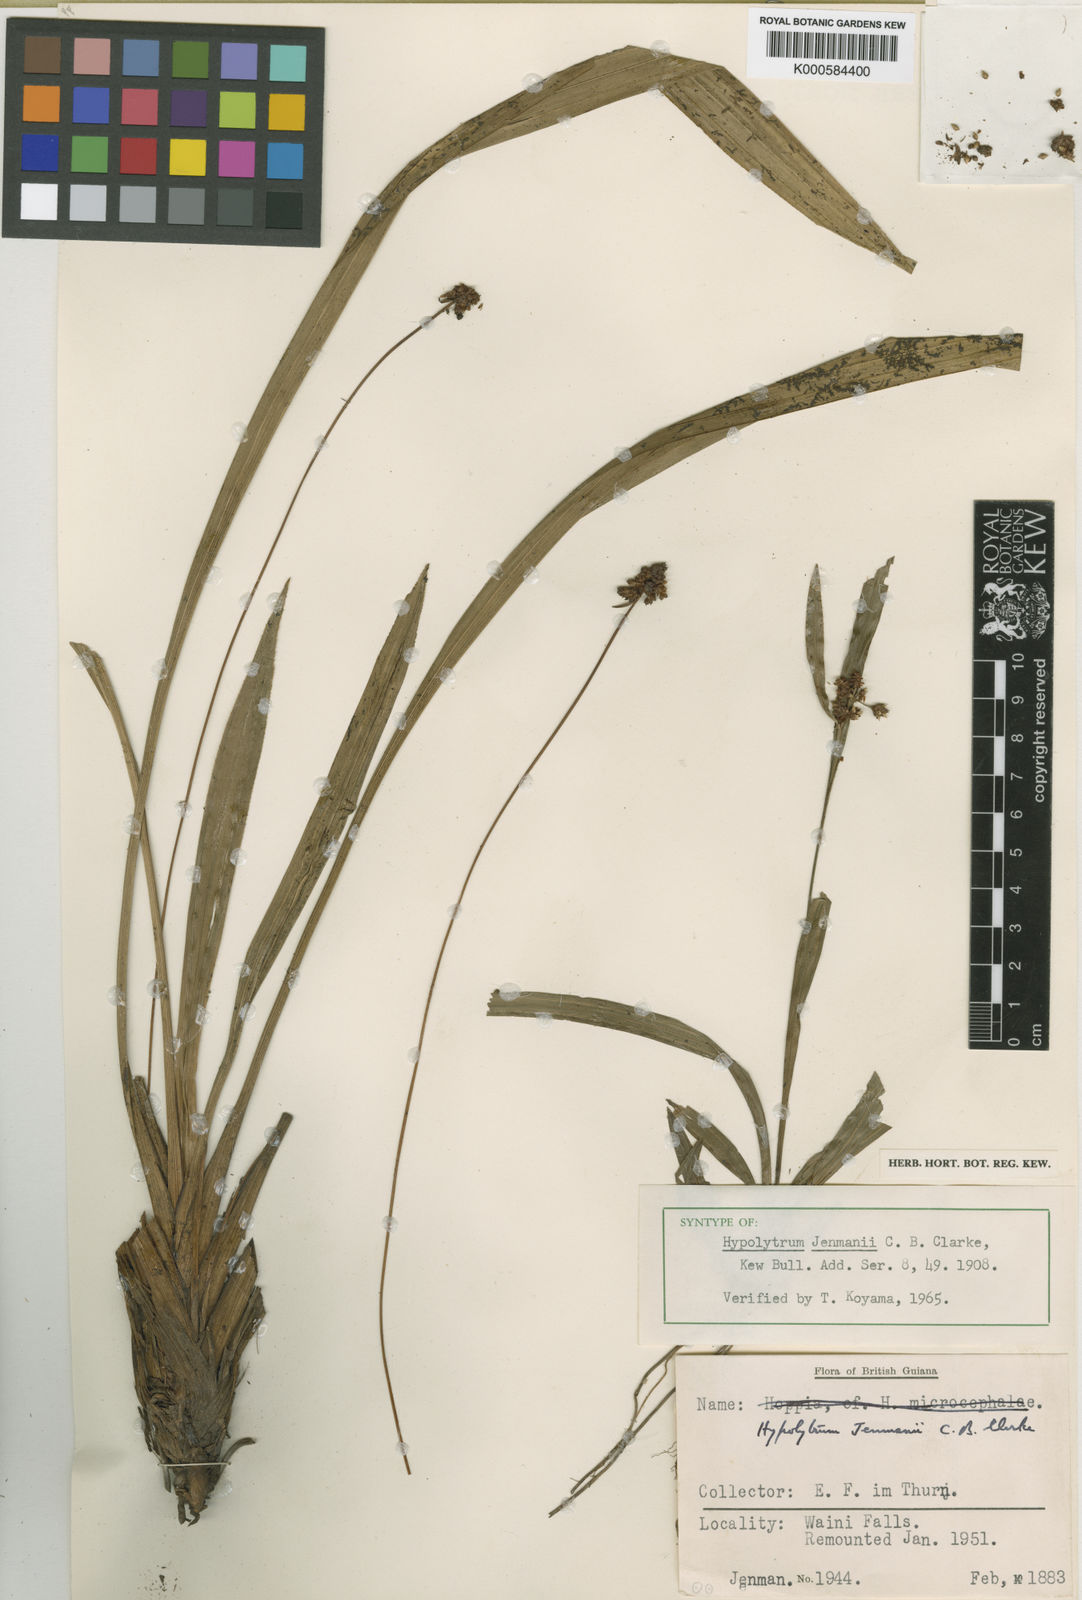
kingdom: Plantae
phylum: Tracheophyta
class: Liliopsida
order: Poales
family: Cyperaceae
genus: Hypolytrum
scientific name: Hypolytrum jenmanii
